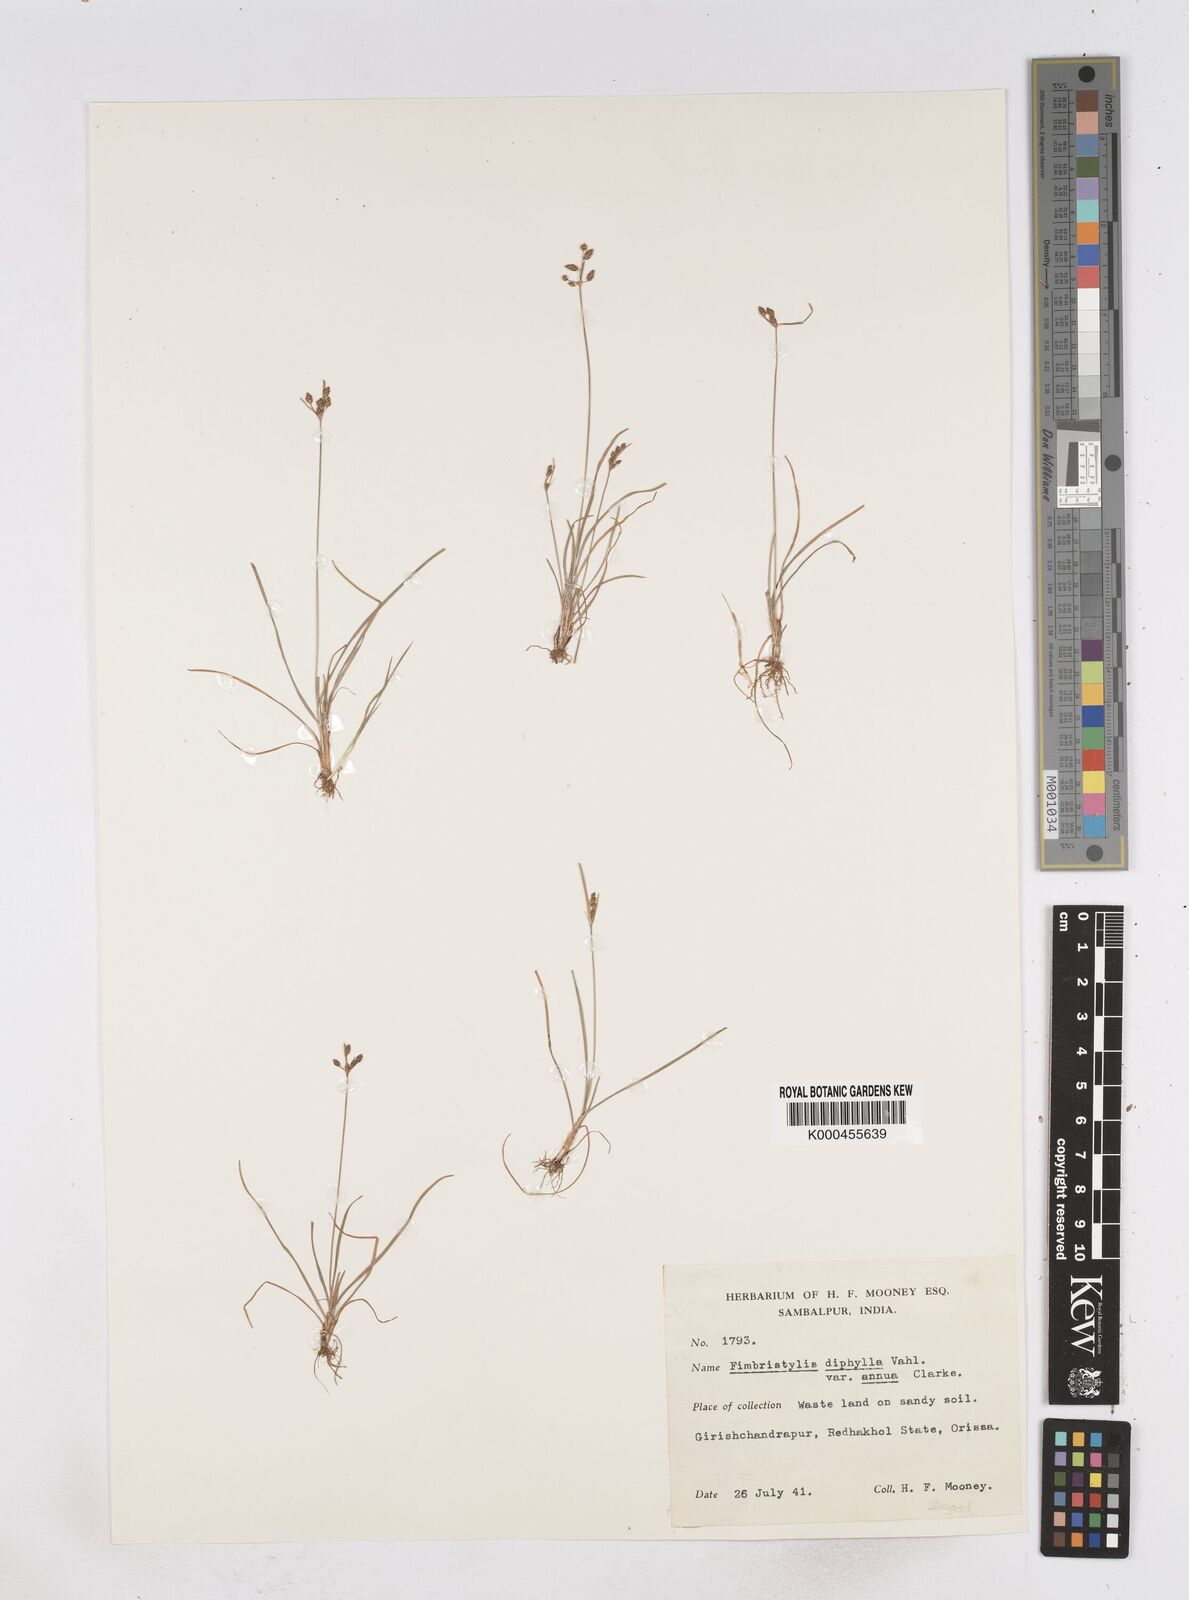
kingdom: Plantae
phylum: Tracheophyta
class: Liliopsida
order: Poales
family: Cyperaceae
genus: Fimbristylis
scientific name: Fimbristylis dichotoma
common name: Forked fimbry
